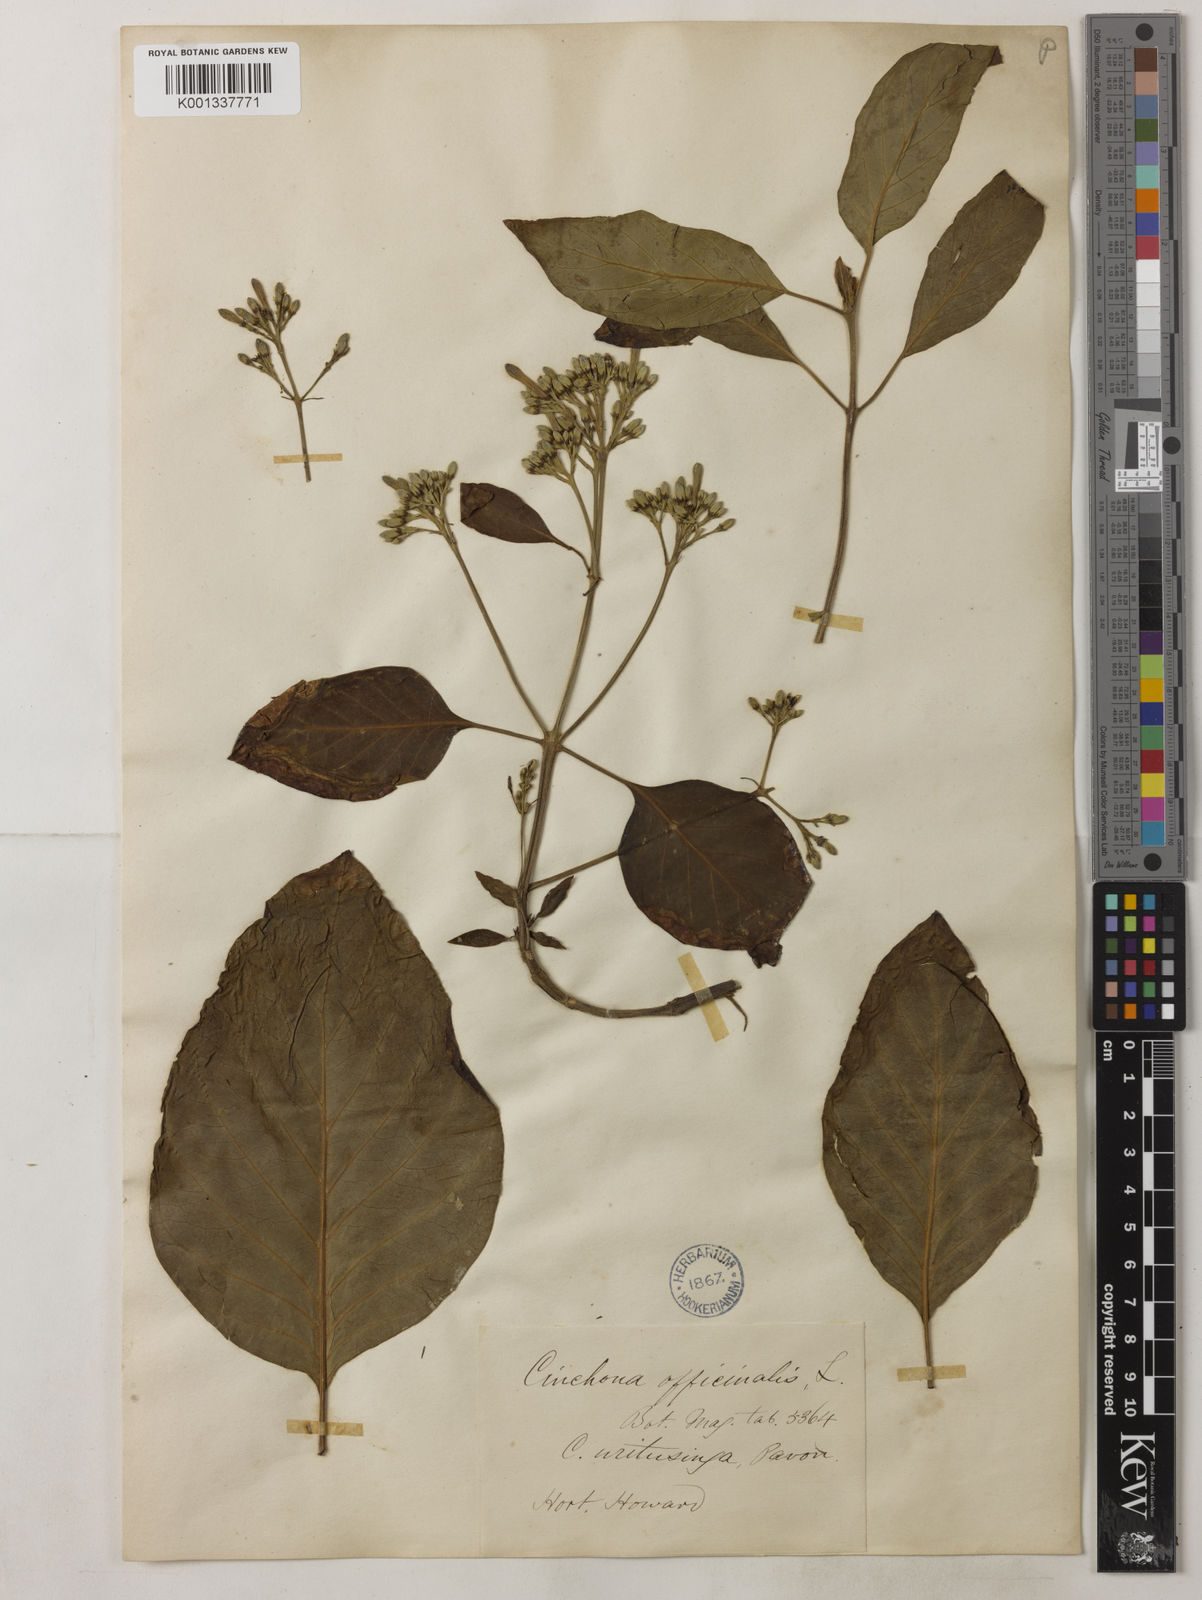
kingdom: Plantae
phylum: Tracheophyta
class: Magnoliopsida
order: Gentianales
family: Rubiaceae
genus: Cinchona
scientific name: Cinchona officinalis
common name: Lojabark
